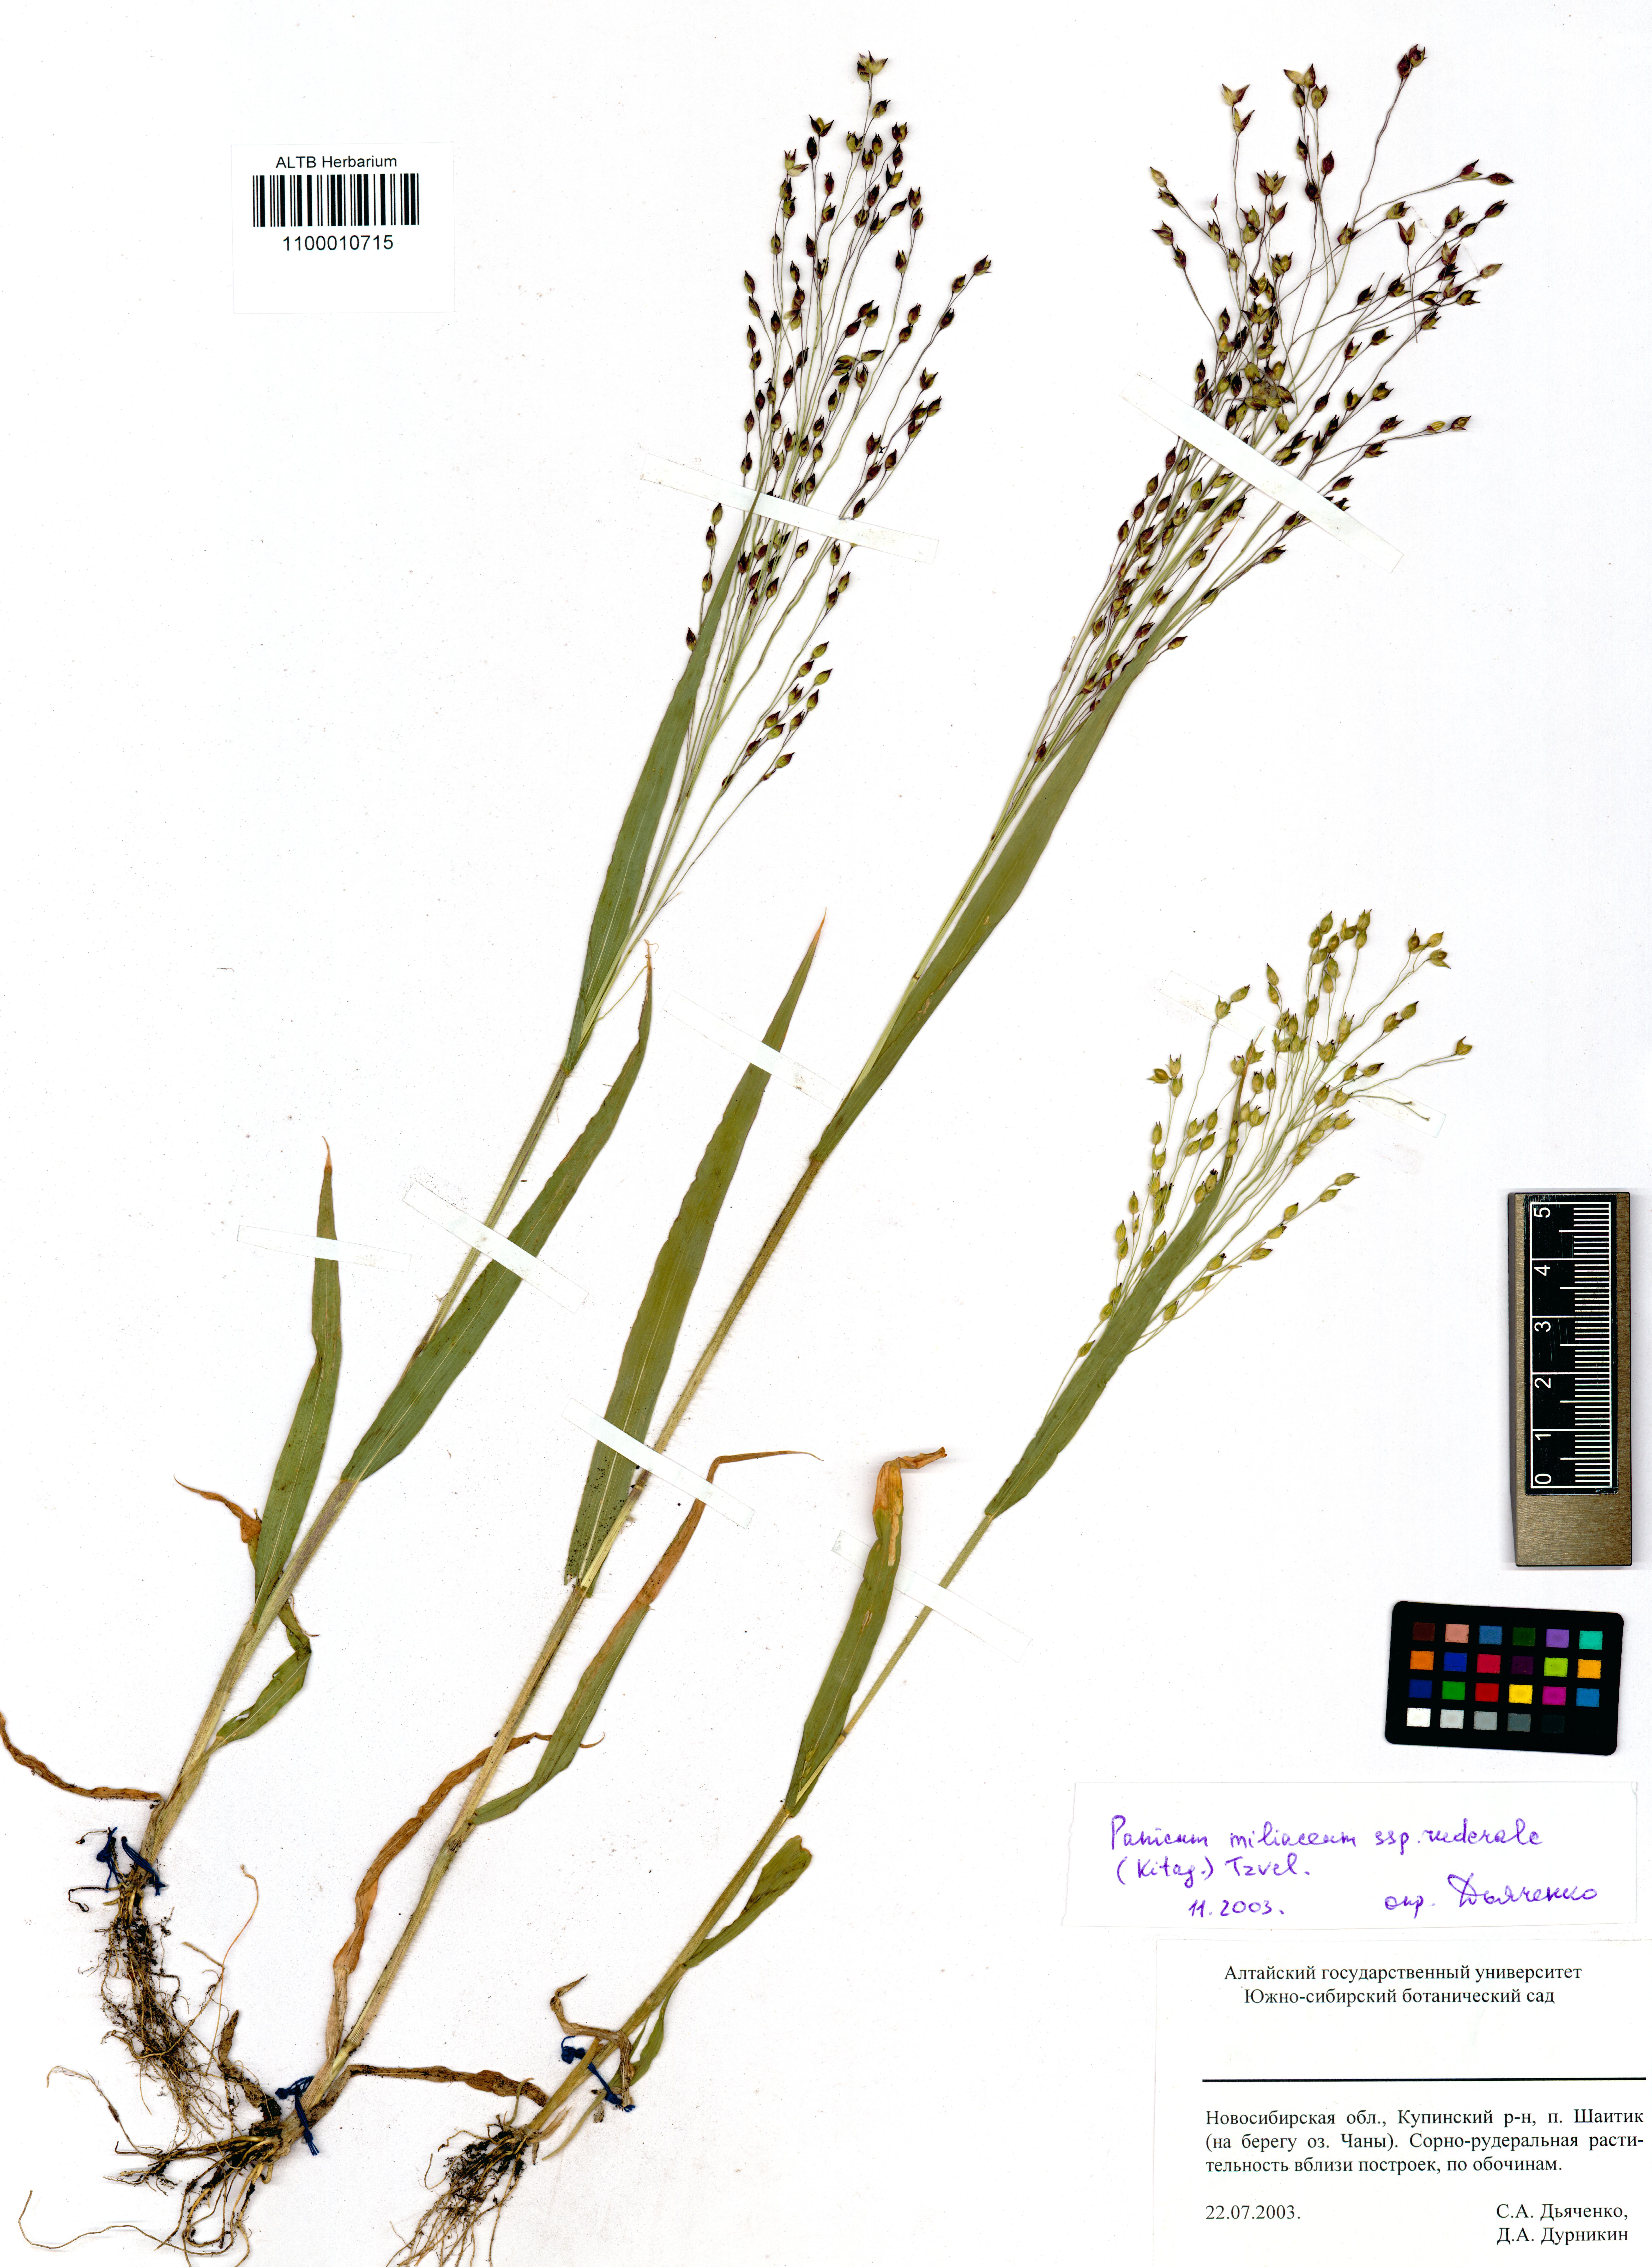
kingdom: Plantae
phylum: Tracheophyta
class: Liliopsida
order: Poales
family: Poaceae
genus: Panicum
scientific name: Panicum miliaceum
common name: Common millet
